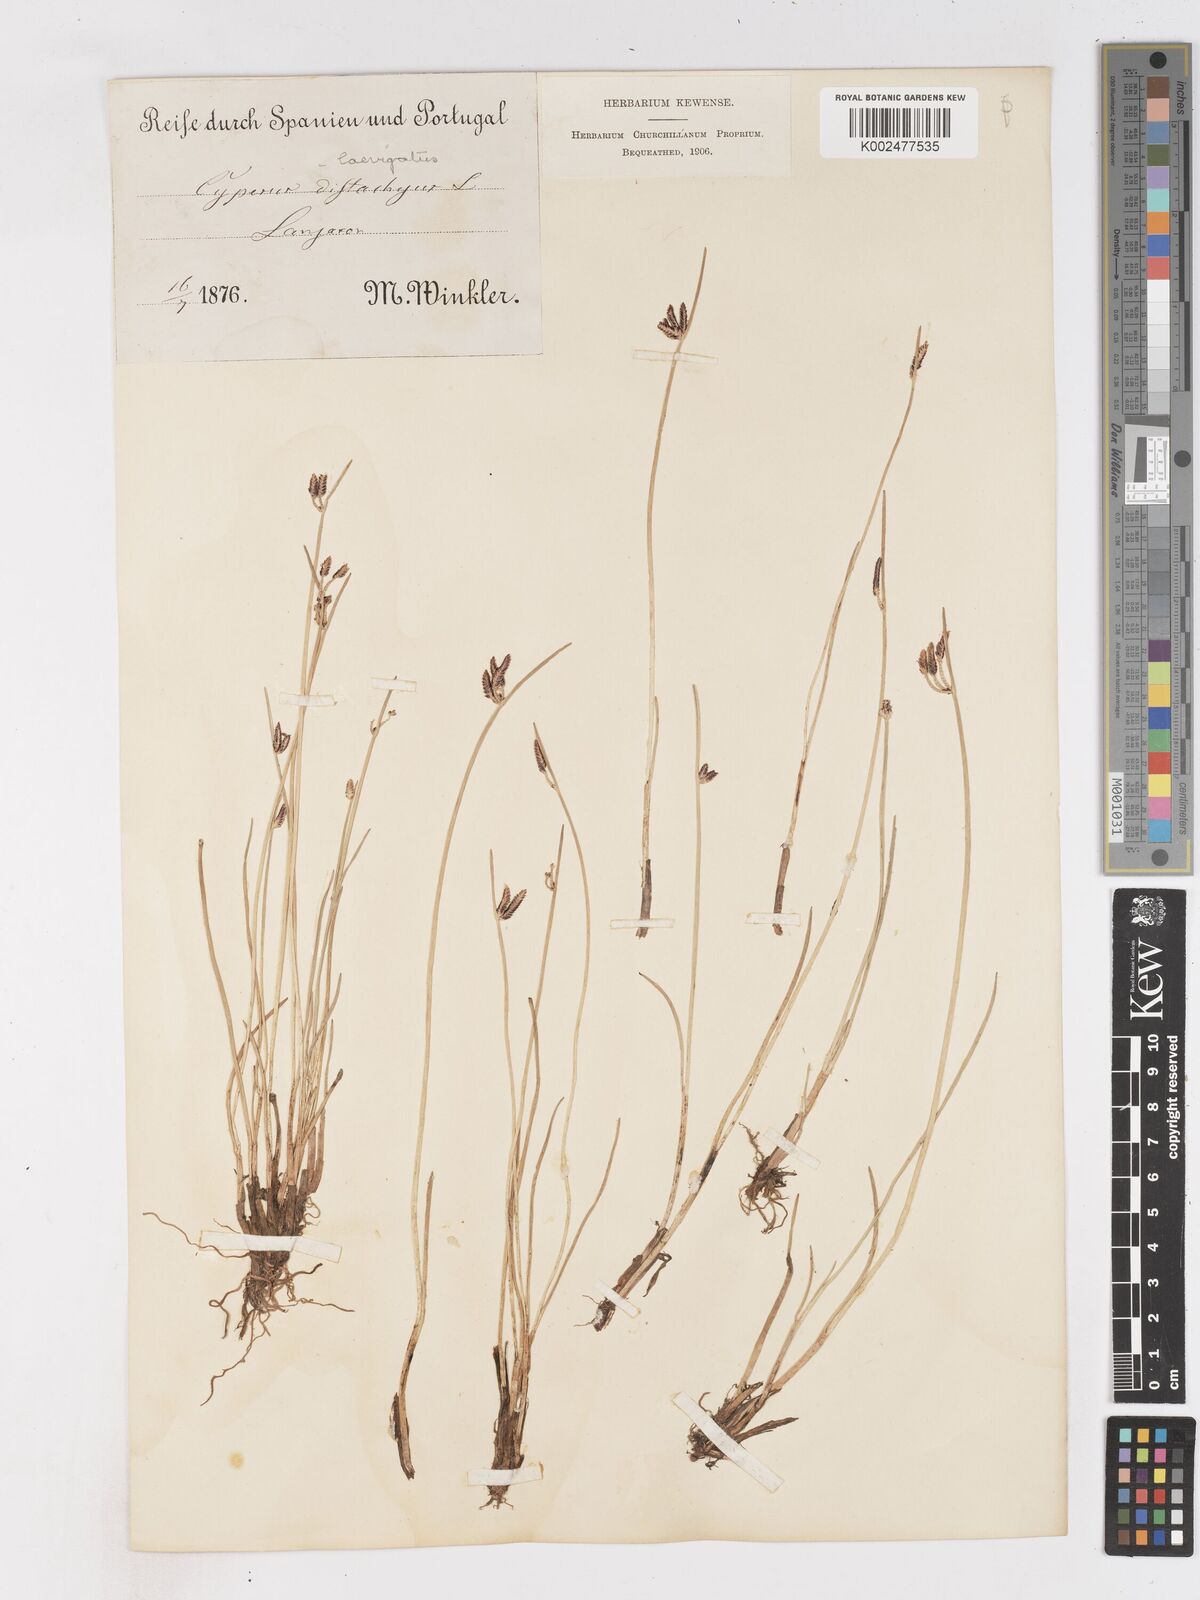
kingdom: Plantae
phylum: Tracheophyta
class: Liliopsida
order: Poales
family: Cyperaceae
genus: Cyperus
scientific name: Cyperus laevigatus
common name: Smooth flat sedge
